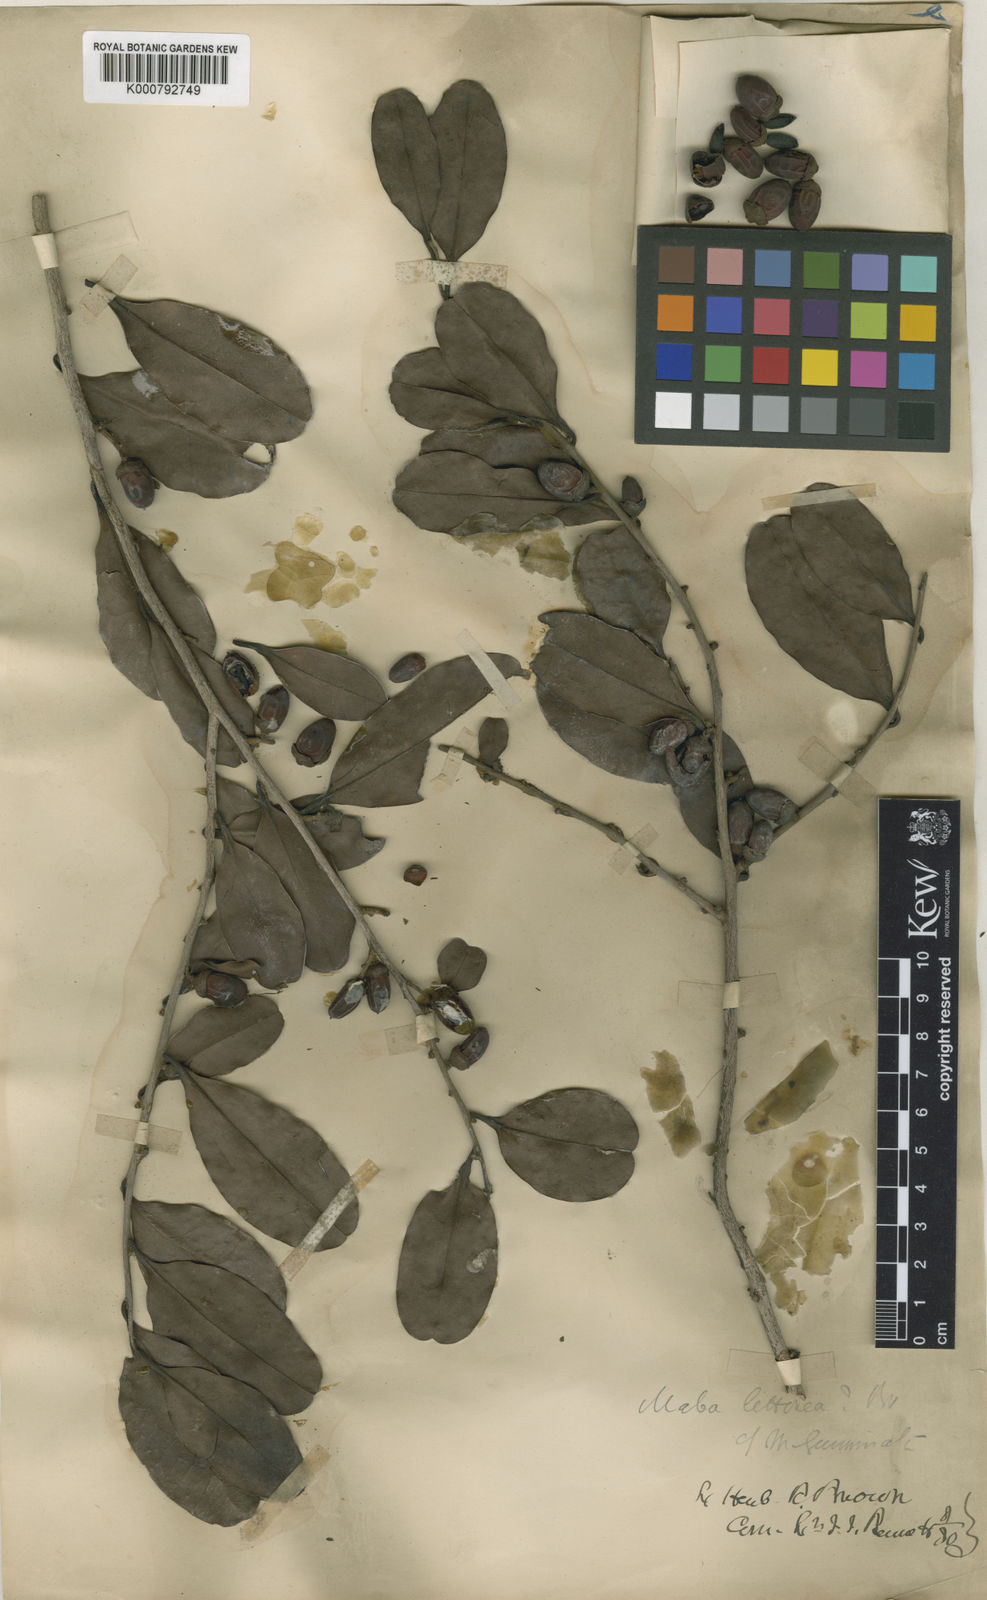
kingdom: Plantae
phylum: Tracheophyta
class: Magnoliopsida
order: Ericales
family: Ebenaceae
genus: Diospyros
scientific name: Diospyros littorea
